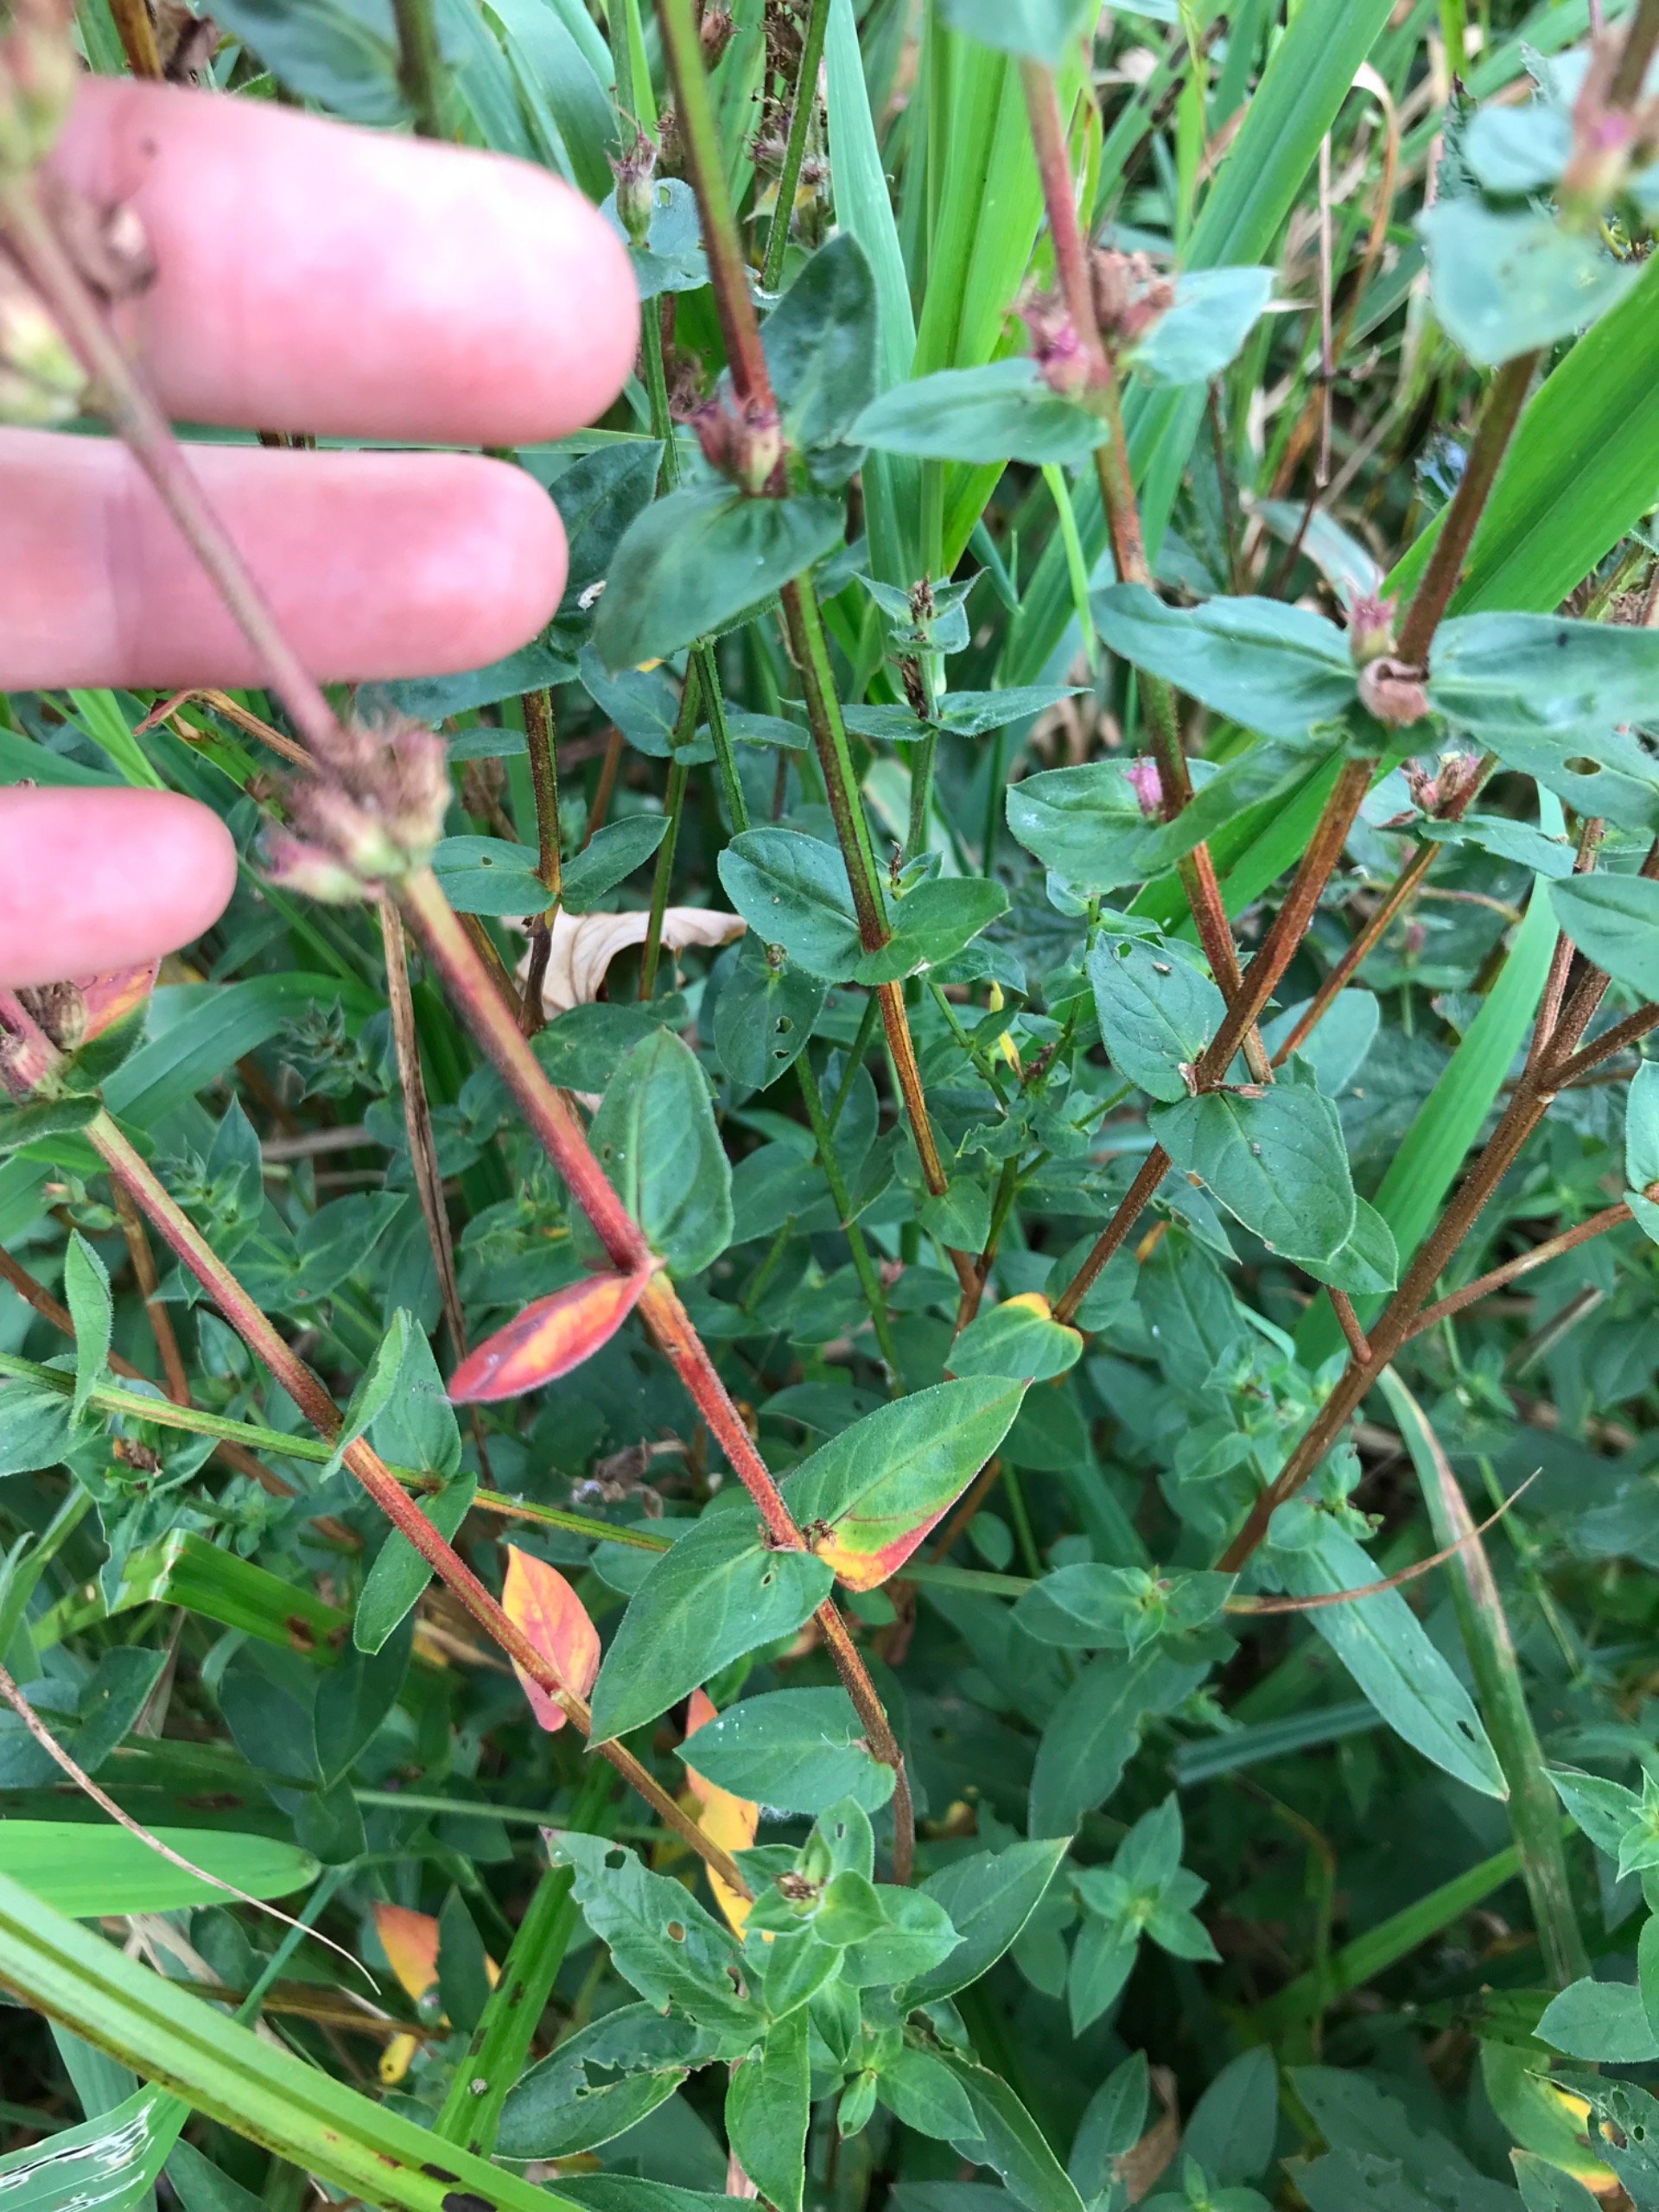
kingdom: Plantae
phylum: Tracheophyta
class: Magnoliopsida
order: Myrtales
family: Lythraceae
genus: Lythrum
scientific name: Lythrum salicaria
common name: Kattehale
